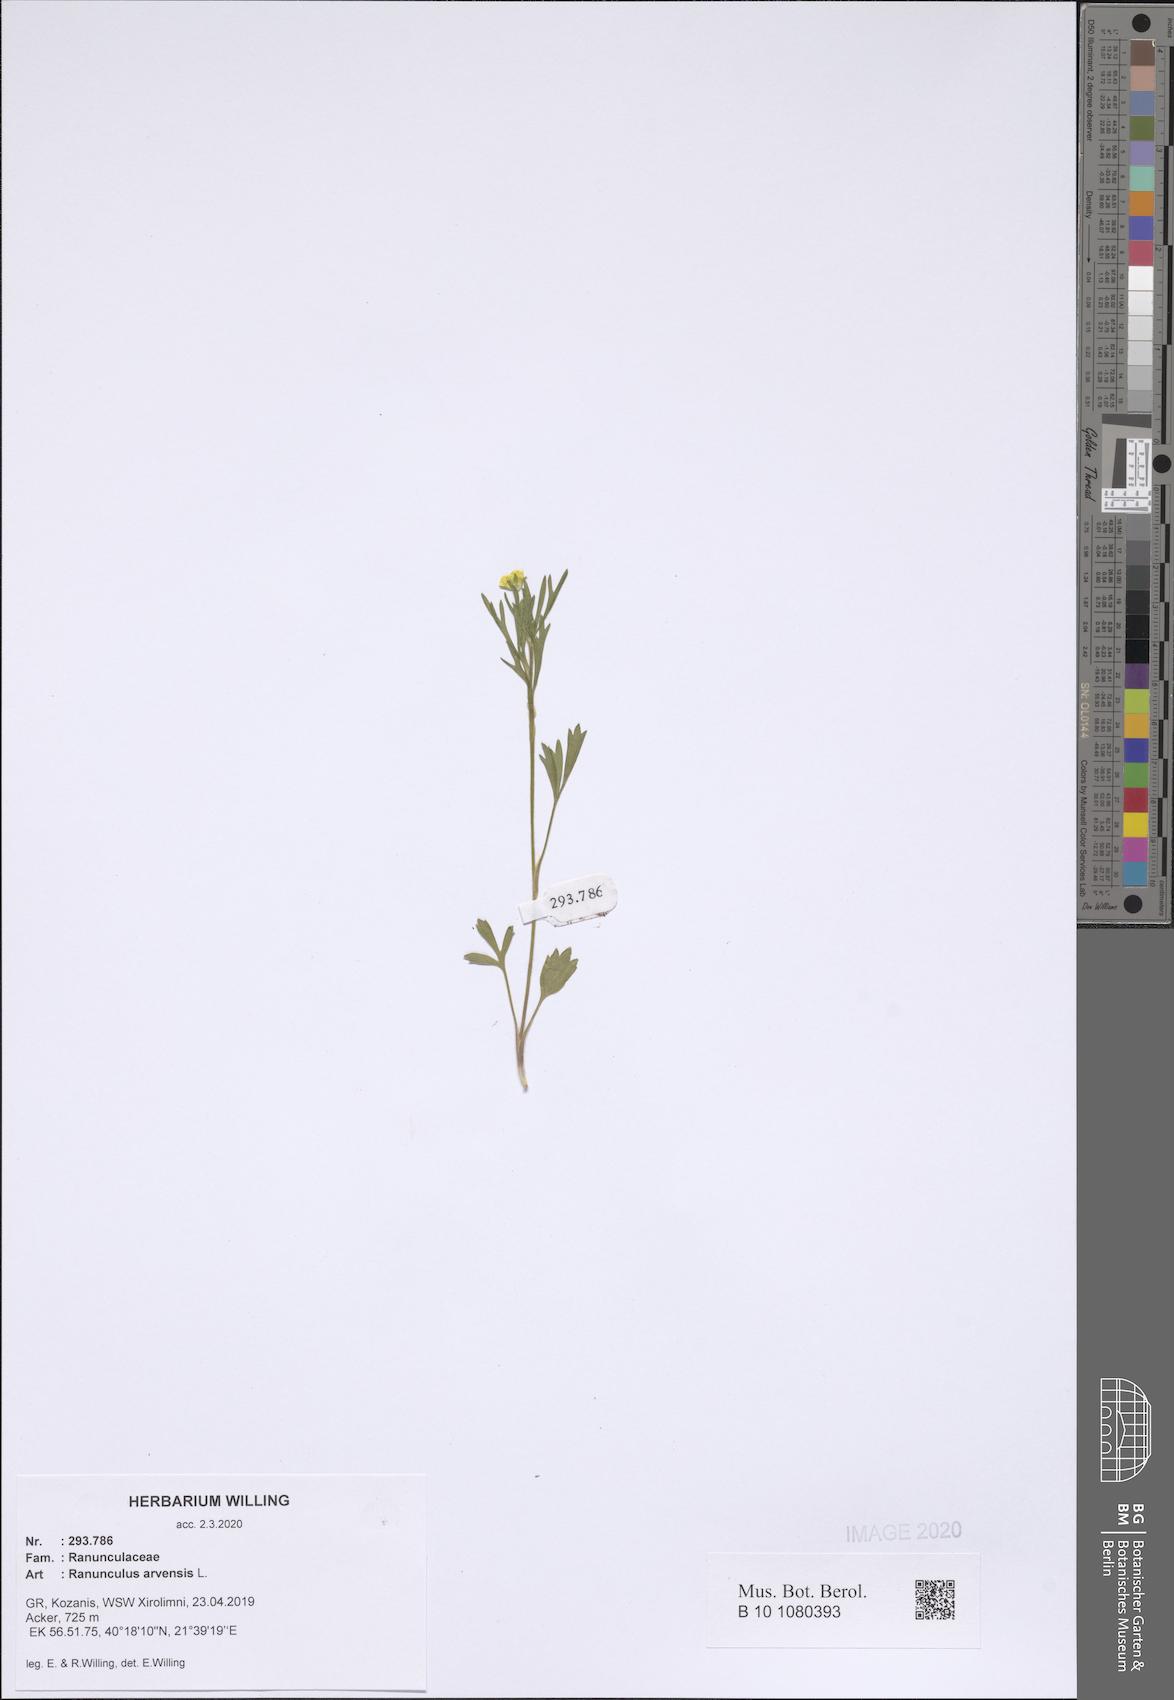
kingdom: Plantae
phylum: Tracheophyta
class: Magnoliopsida
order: Ranunculales
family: Ranunculaceae
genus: Ranunculus
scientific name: Ranunculus arvensis
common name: Corn buttercup
